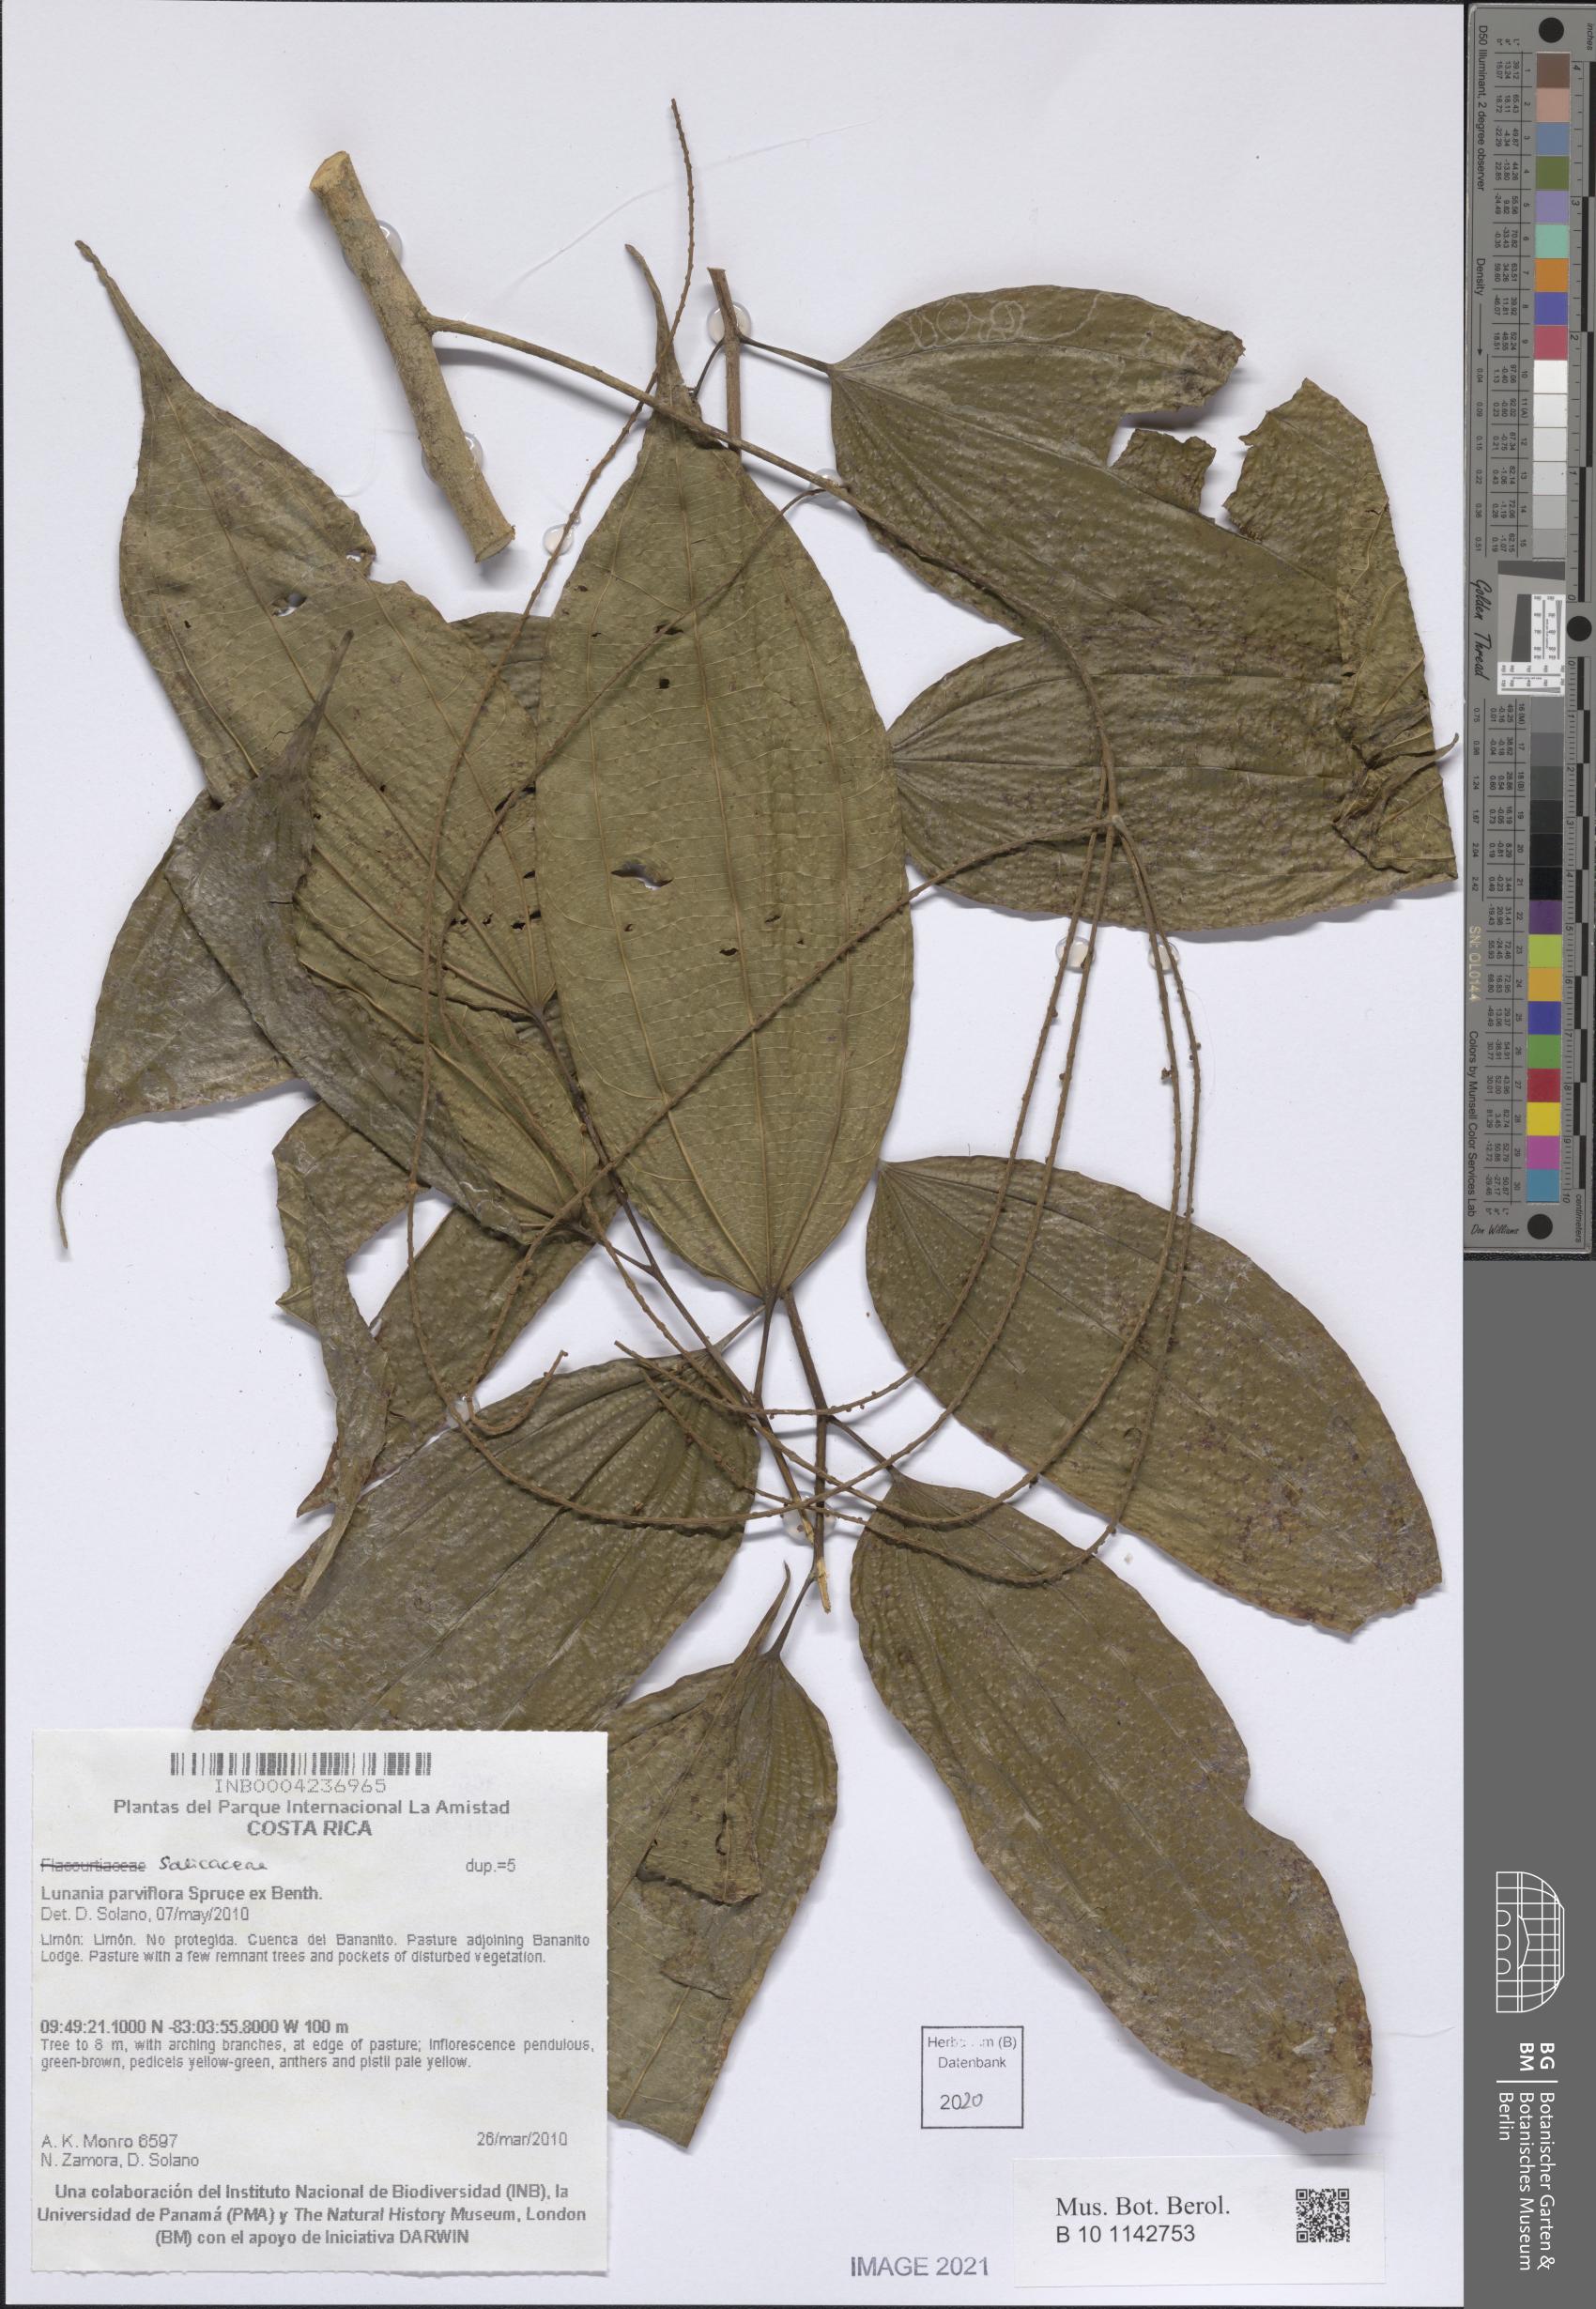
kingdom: Plantae
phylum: Tracheophyta
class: Magnoliopsida
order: Malpighiales
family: Salicaceae
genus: Lunania
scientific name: Lunania parviflora
